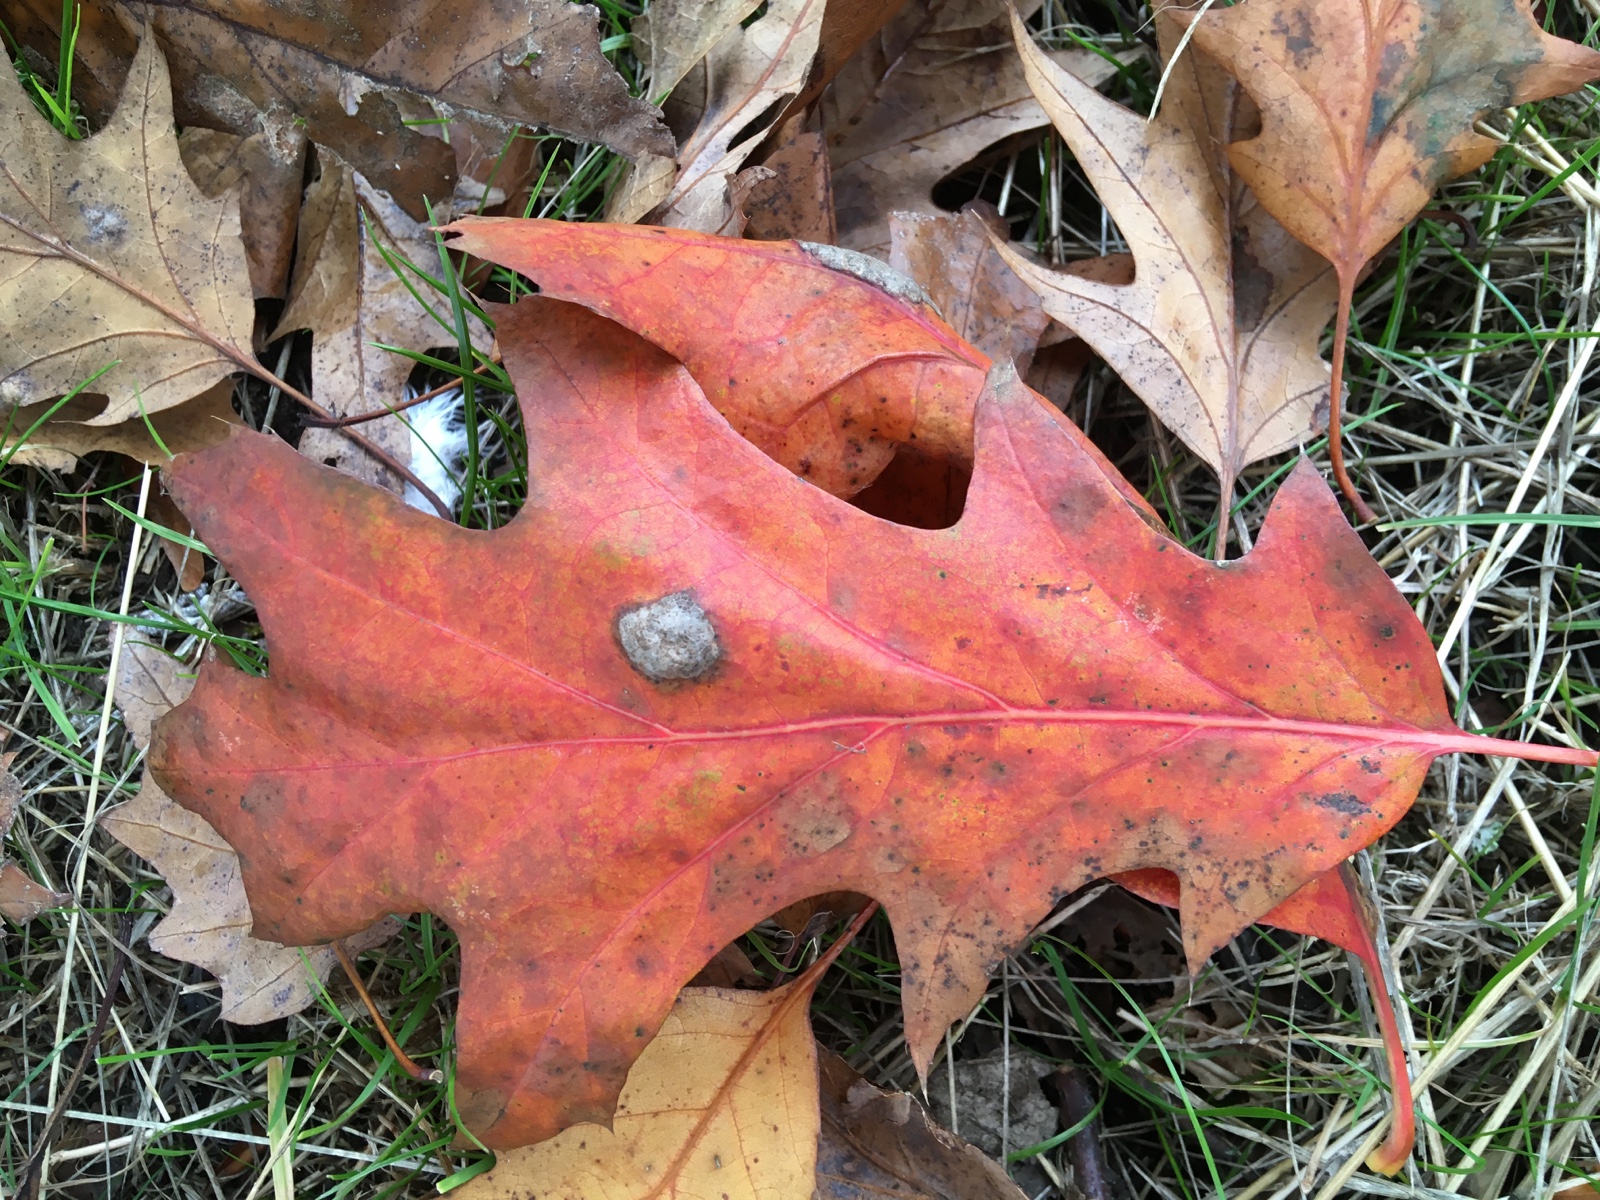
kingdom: Fungi
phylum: Ascomycota
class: Taphrinomycetes
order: Taphrinales
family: Taphrinaceae
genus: Taphrina
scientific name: Taphrina caerulescens
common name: Oak leaf blister
